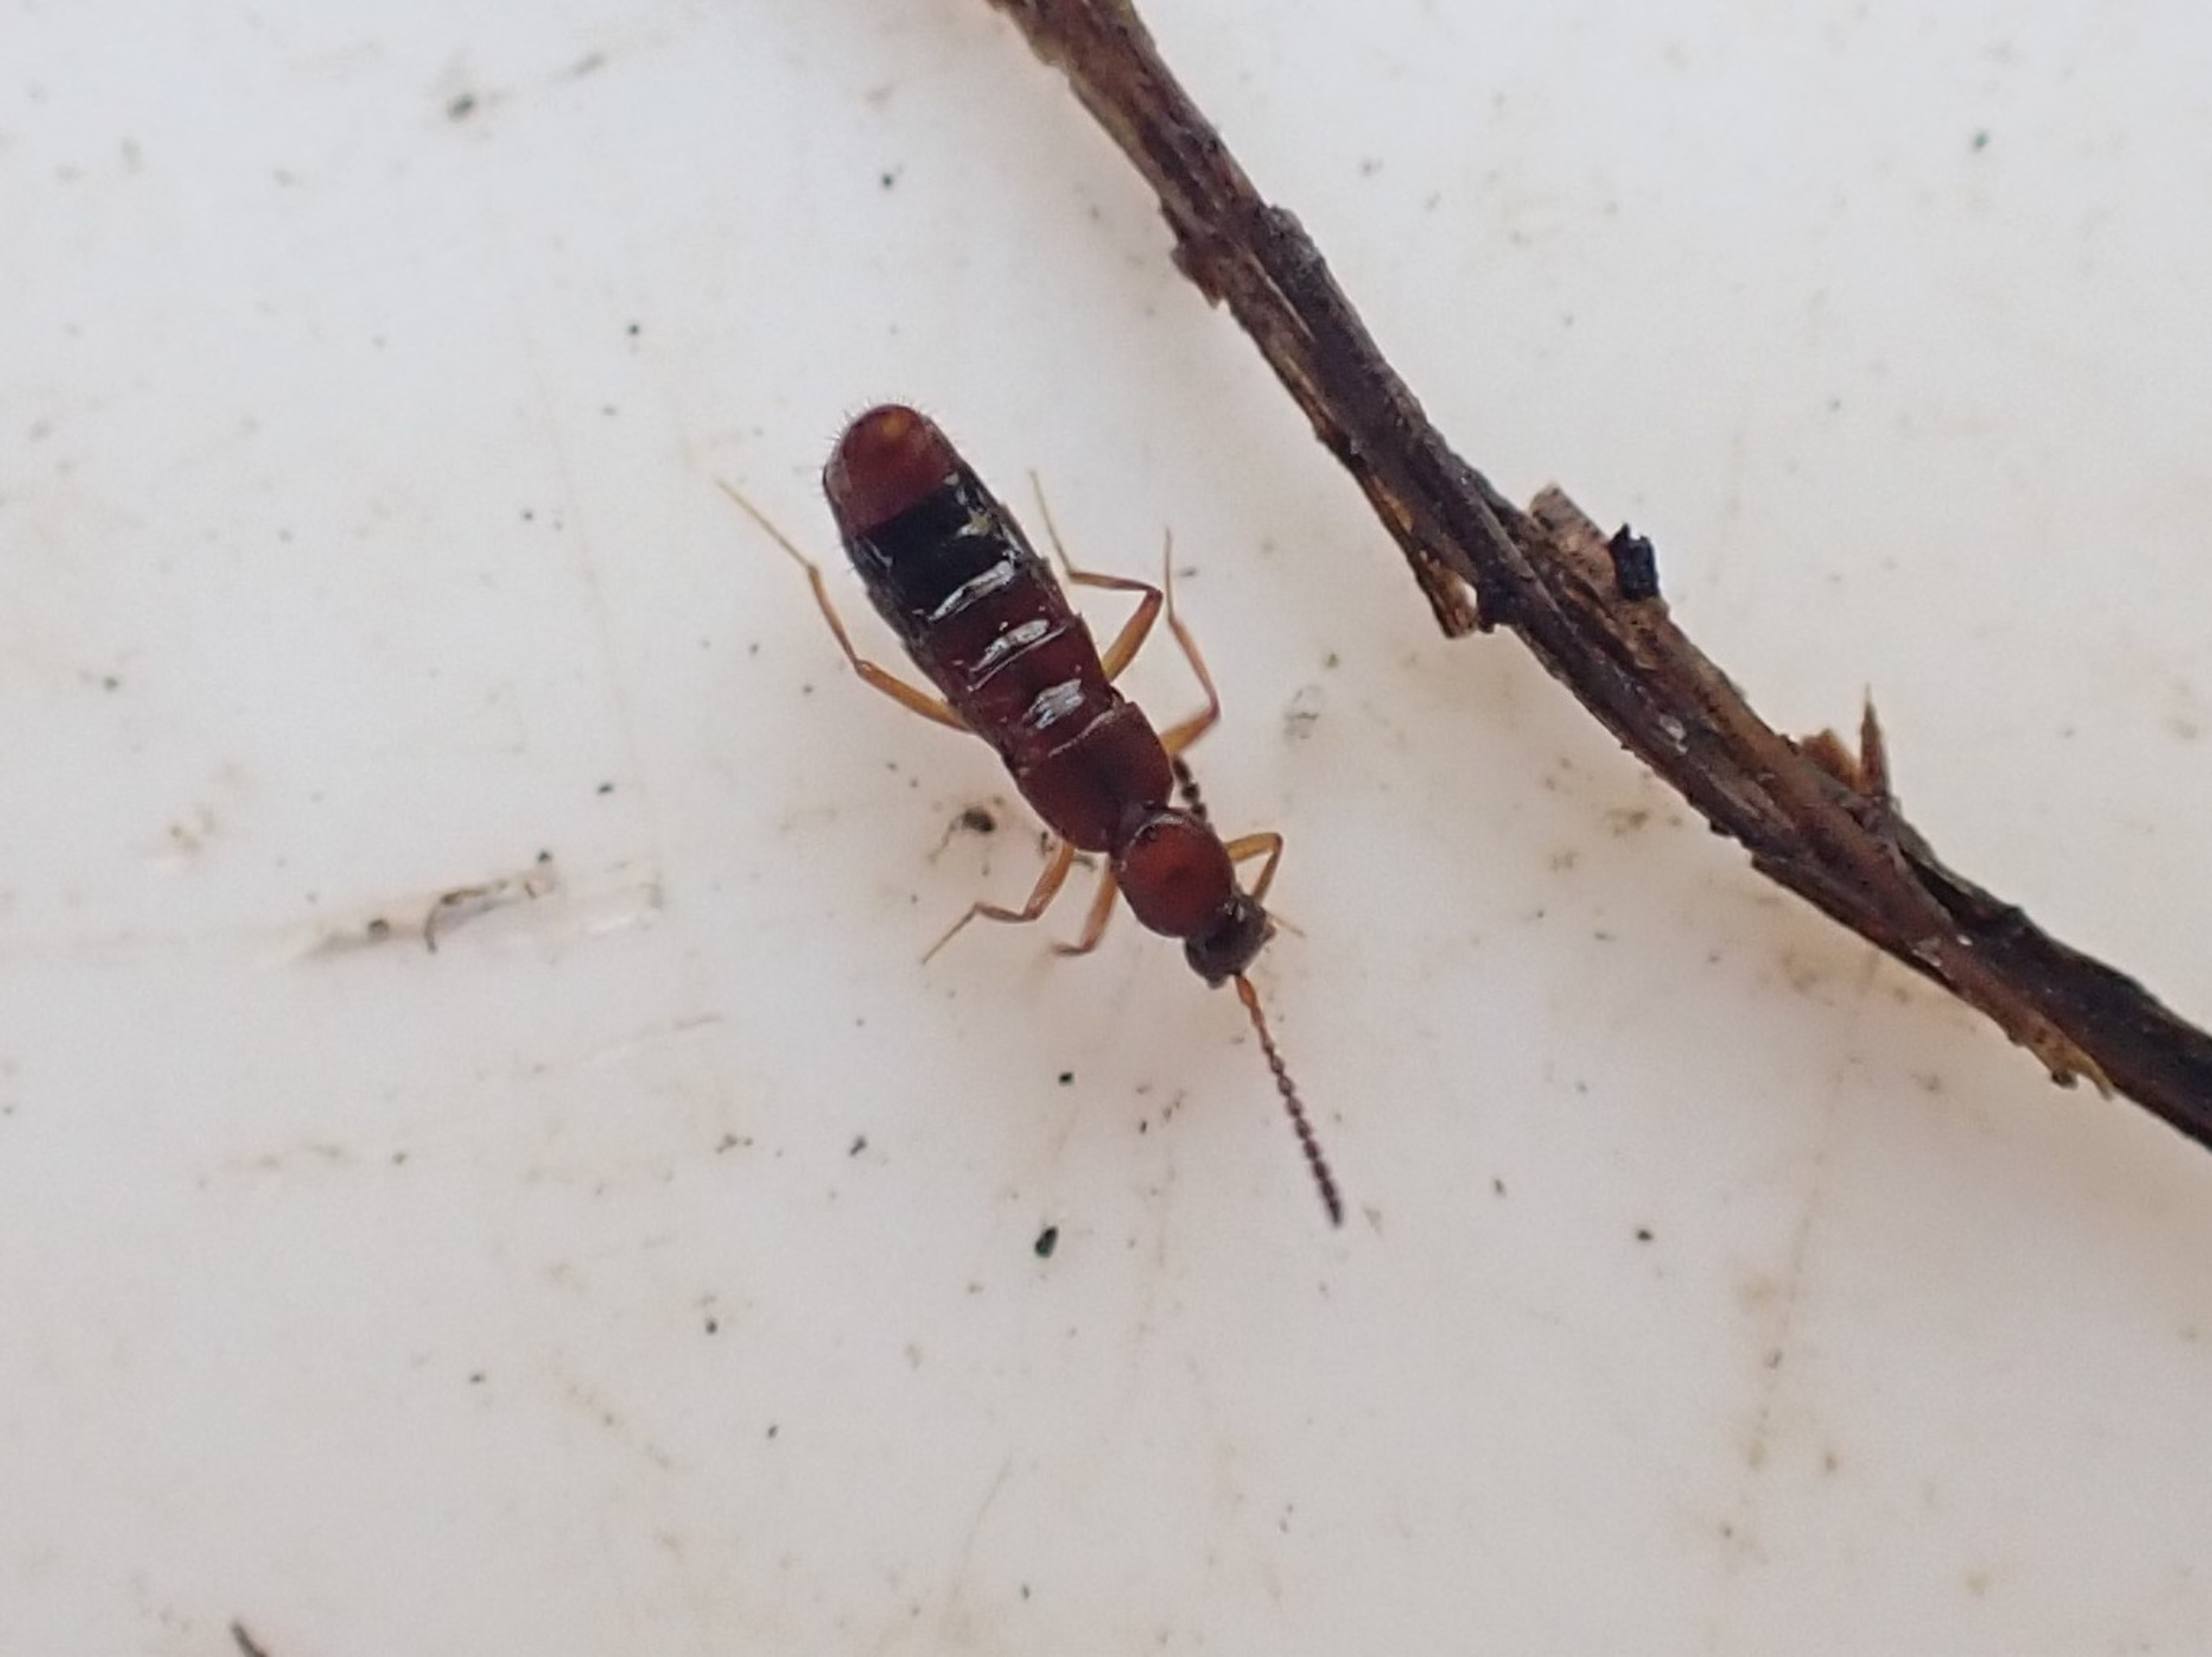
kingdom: Animalia
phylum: Arthropoda
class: Insecta
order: Coleoptera
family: Staphylinidae
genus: Drusilla
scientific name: Drusilla canaliculata
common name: Myrerøver
